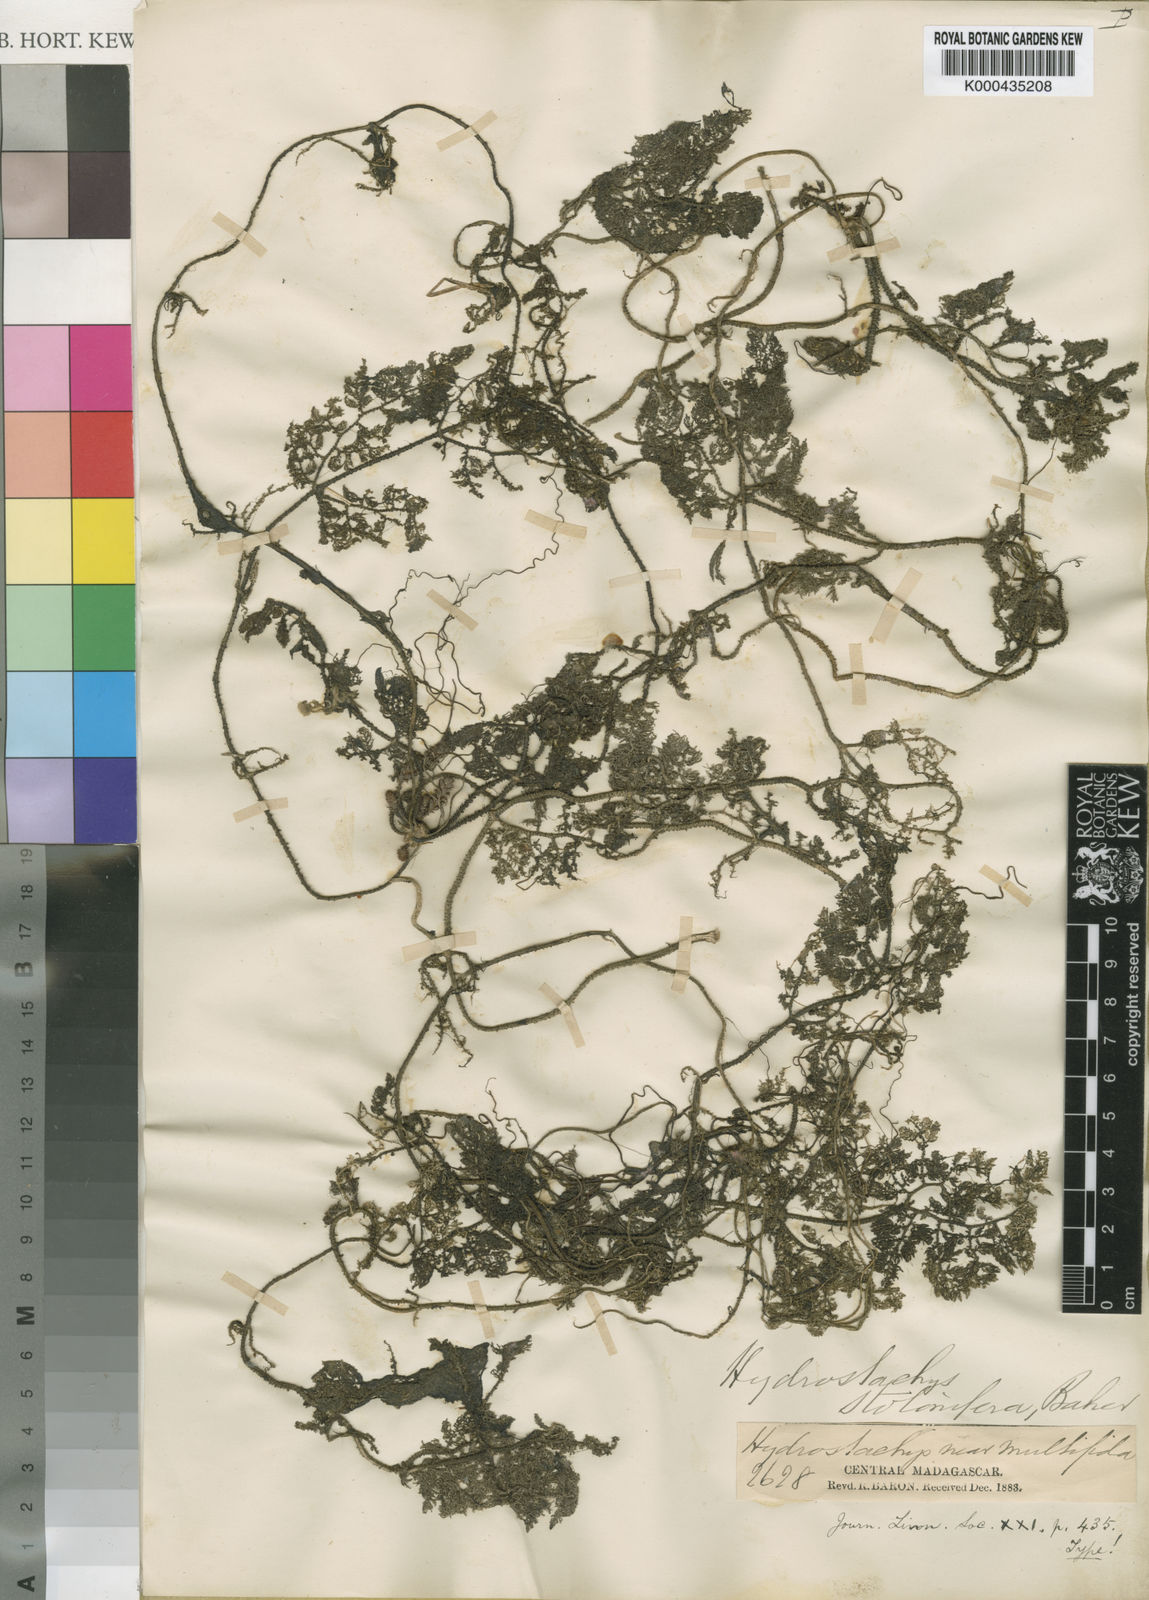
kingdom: Plantae
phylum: Tracheophyta
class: Magnoliopsida
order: Cornales
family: Hydrostachyaceae
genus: Hydrostachys
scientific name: Hydrostachys stolonifera
